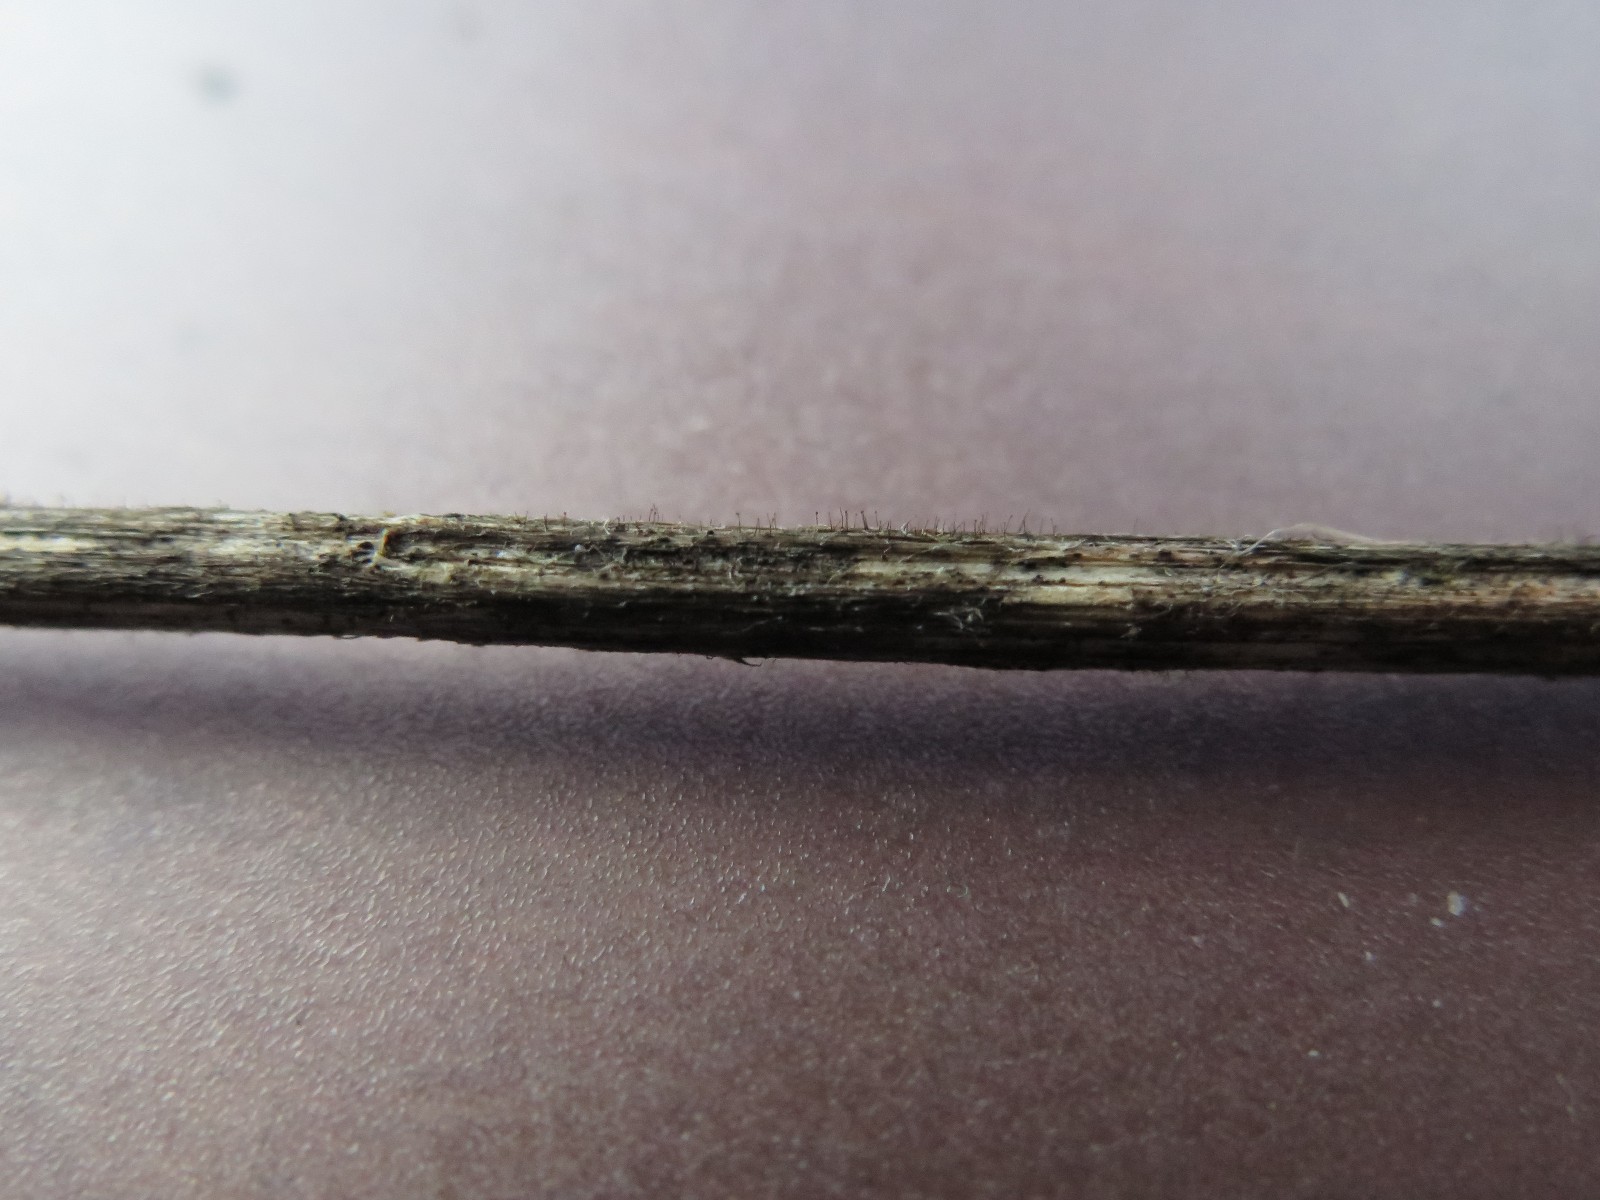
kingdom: Fungi
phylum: Ascomycota
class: Dothideomycetes
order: Pleosporales
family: Periconiaceae
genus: Periconia
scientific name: Periconia byssoides
